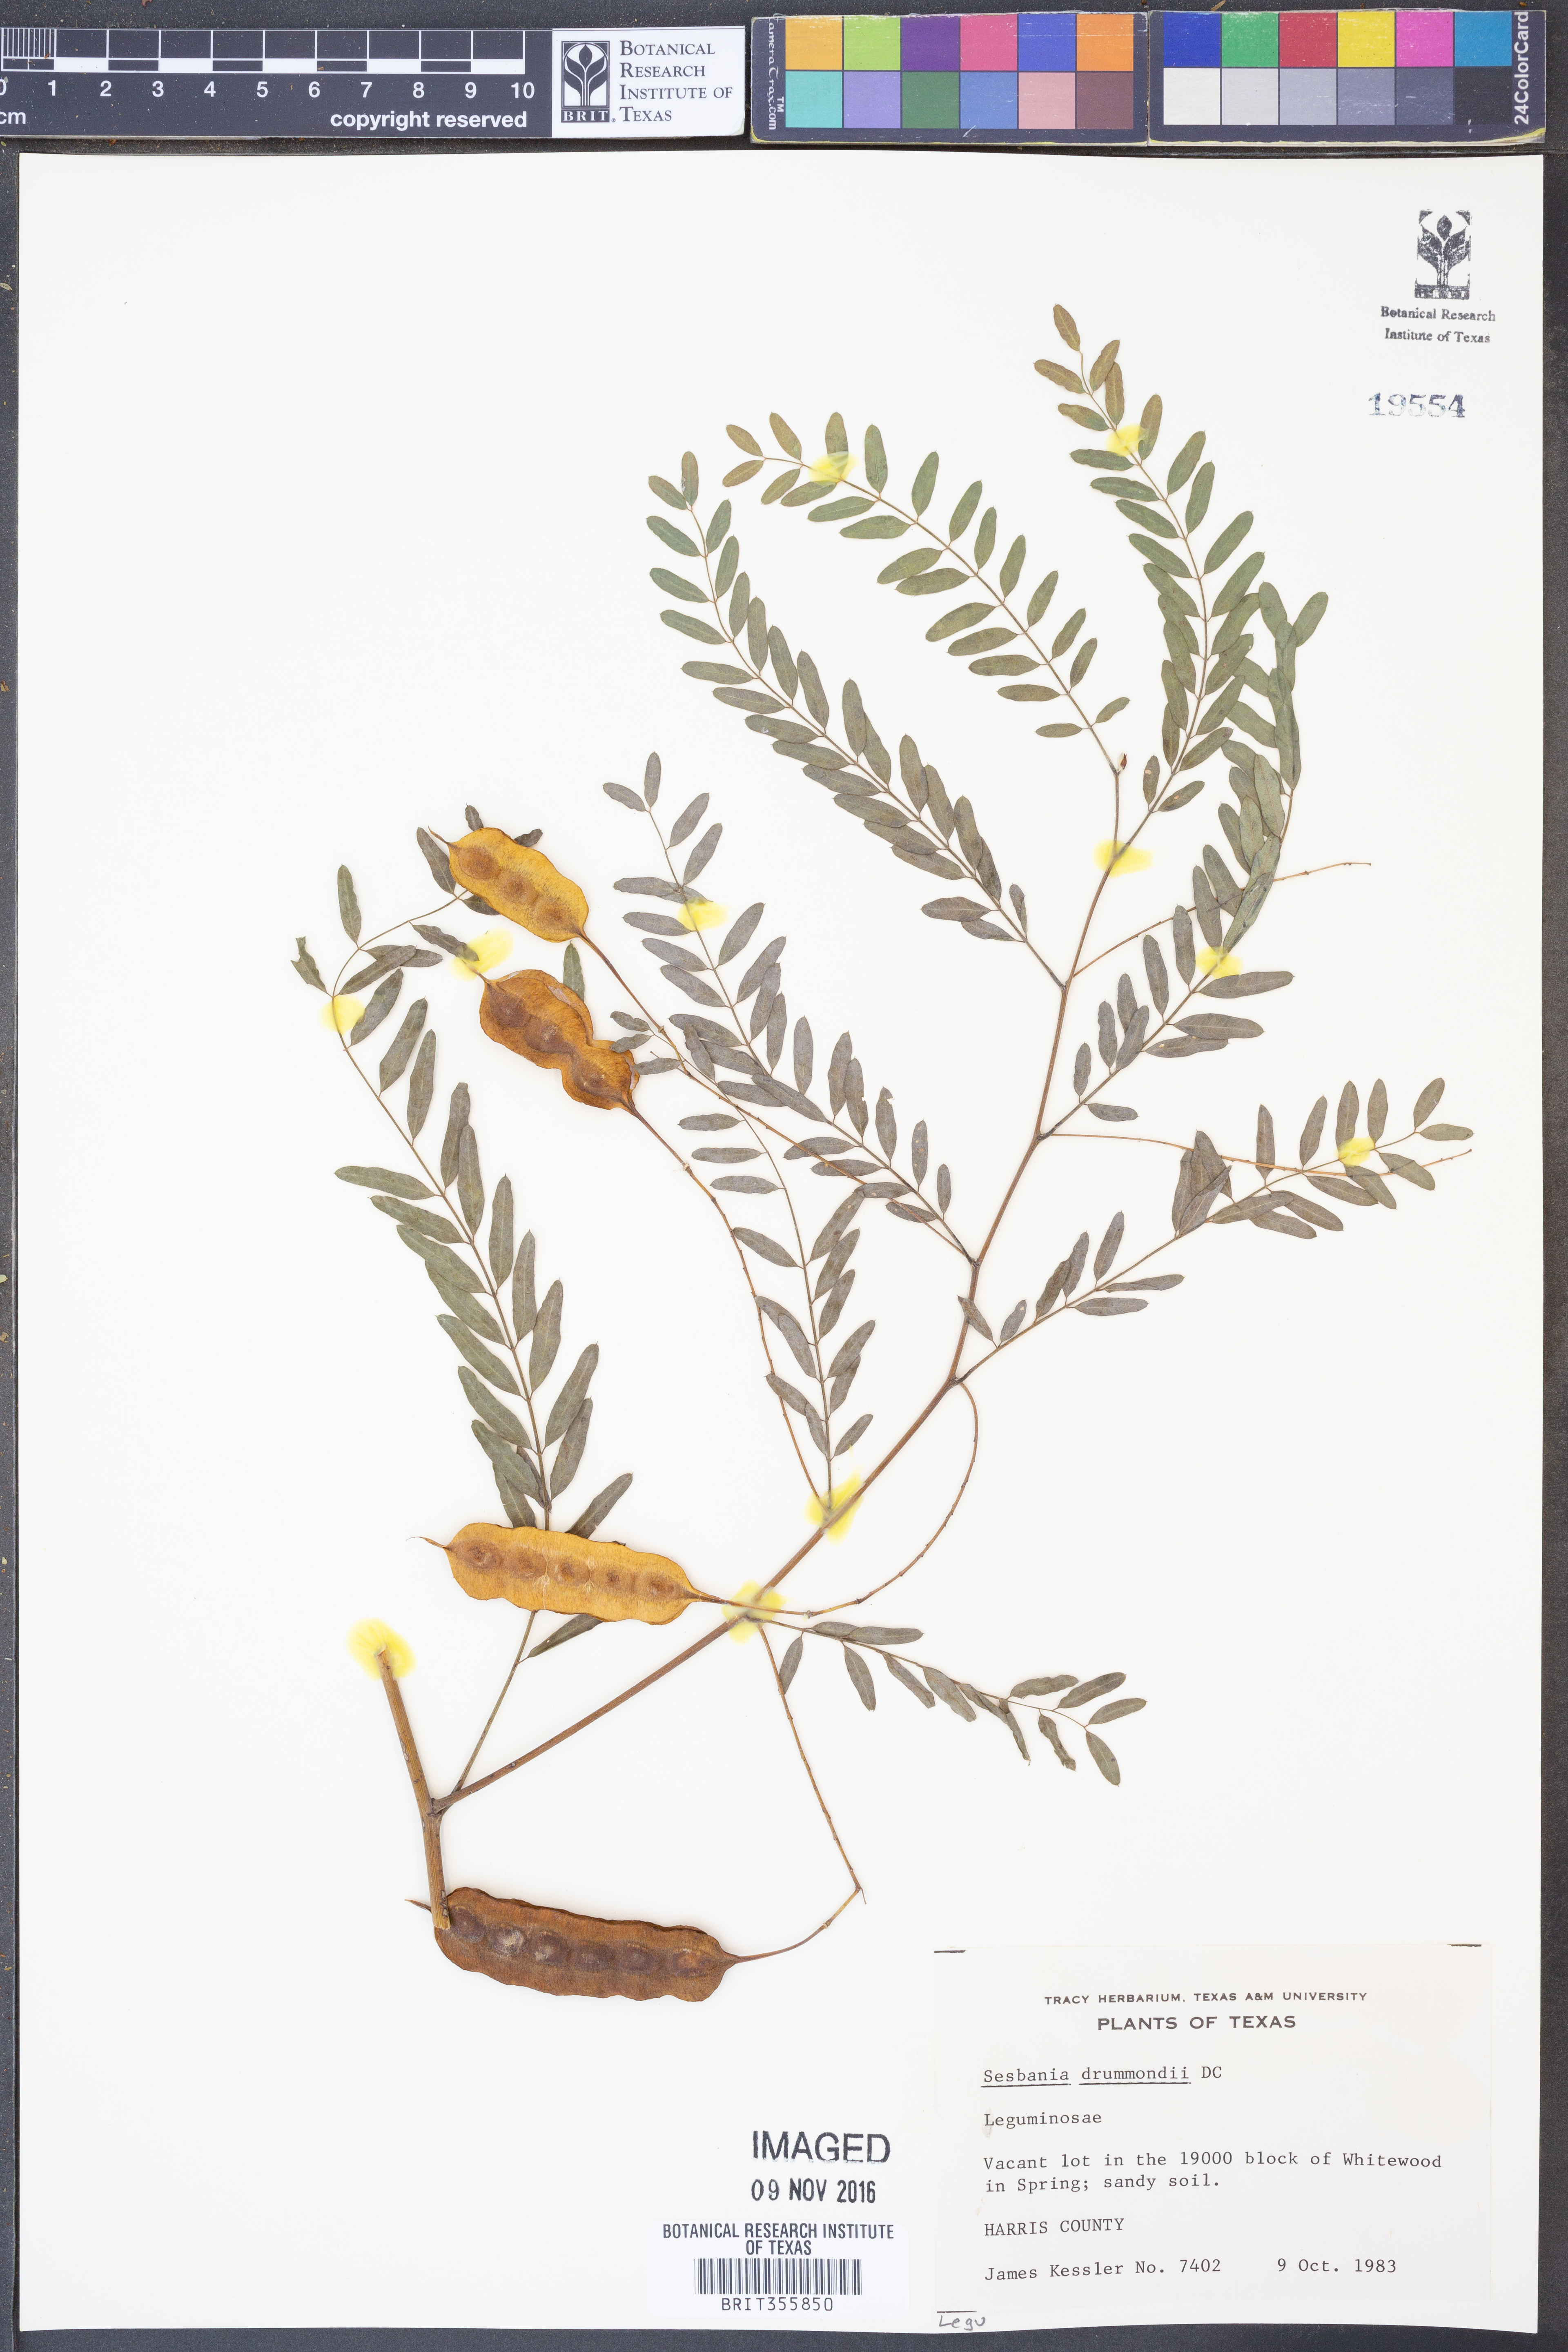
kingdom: Plantae
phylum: Tracheophyta
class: Magnoliopsida
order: Fabales
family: Fabaceae
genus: Sesbania
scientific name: Sesbania drummondii
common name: Poison-bean
